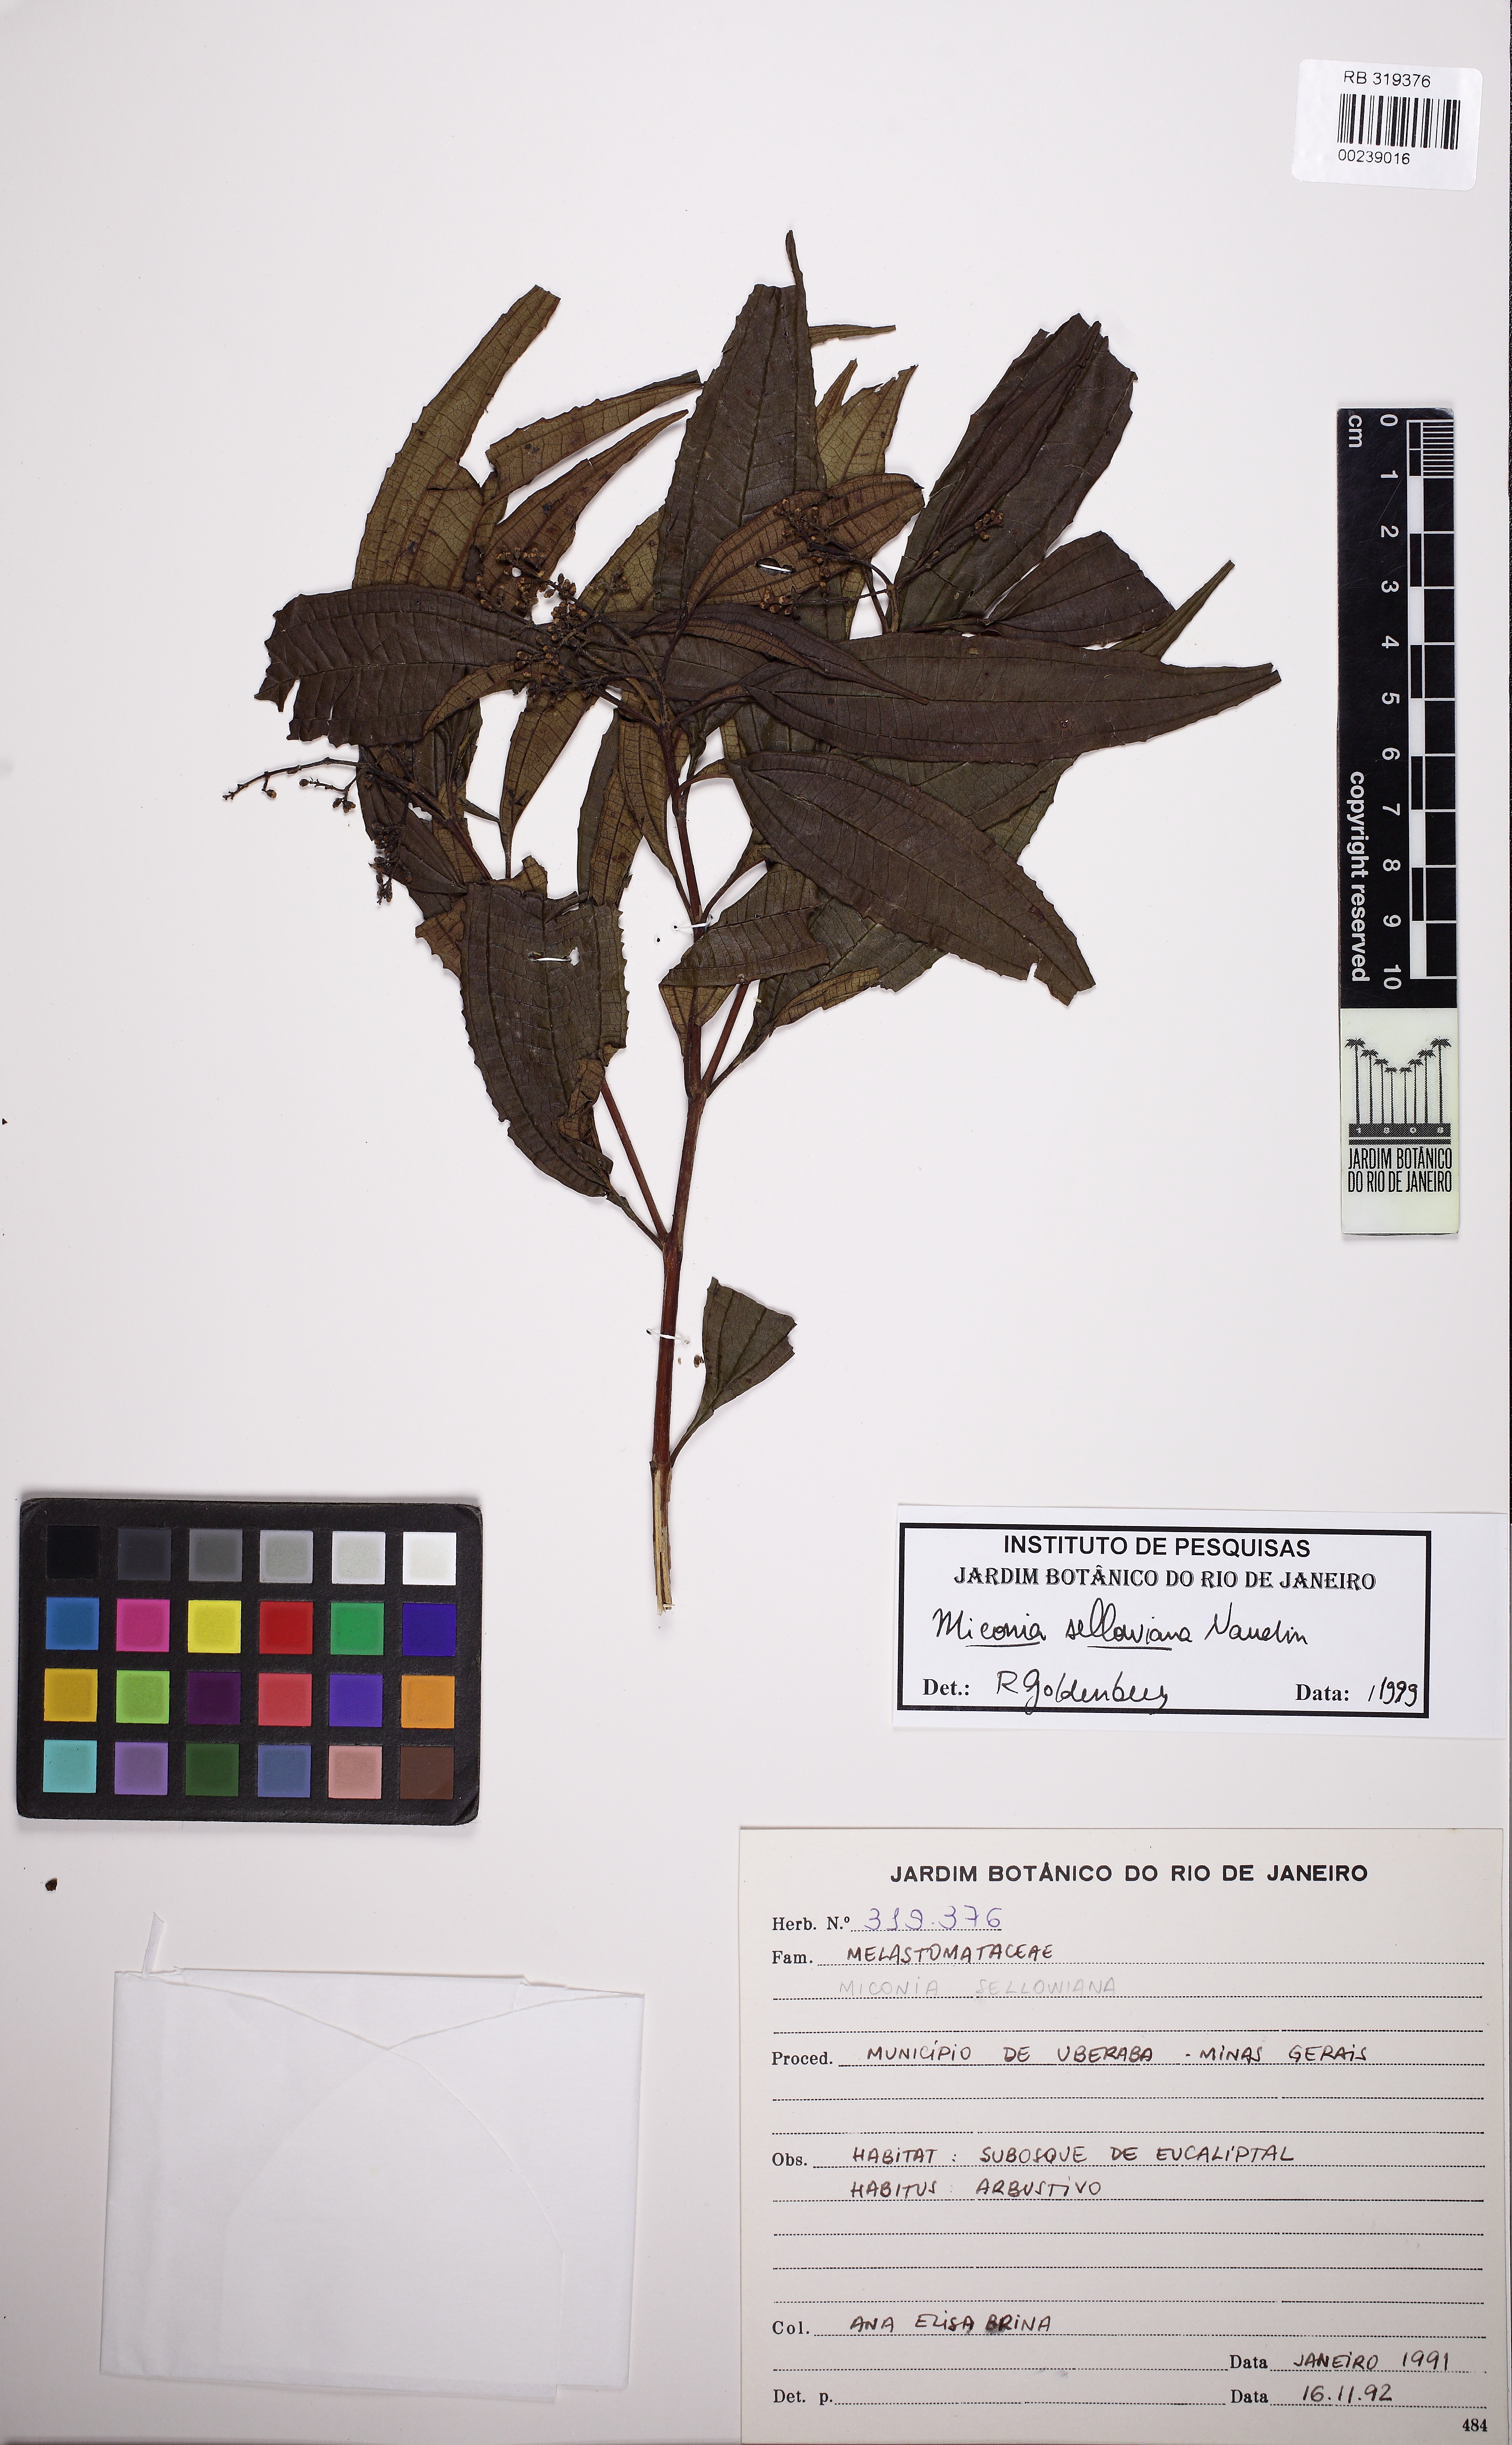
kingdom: Plantae
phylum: Tracheophyta
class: Magnoliopsida
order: Myrtales
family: Melastomataceae
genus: Miconia
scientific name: Miconia sellowiana
